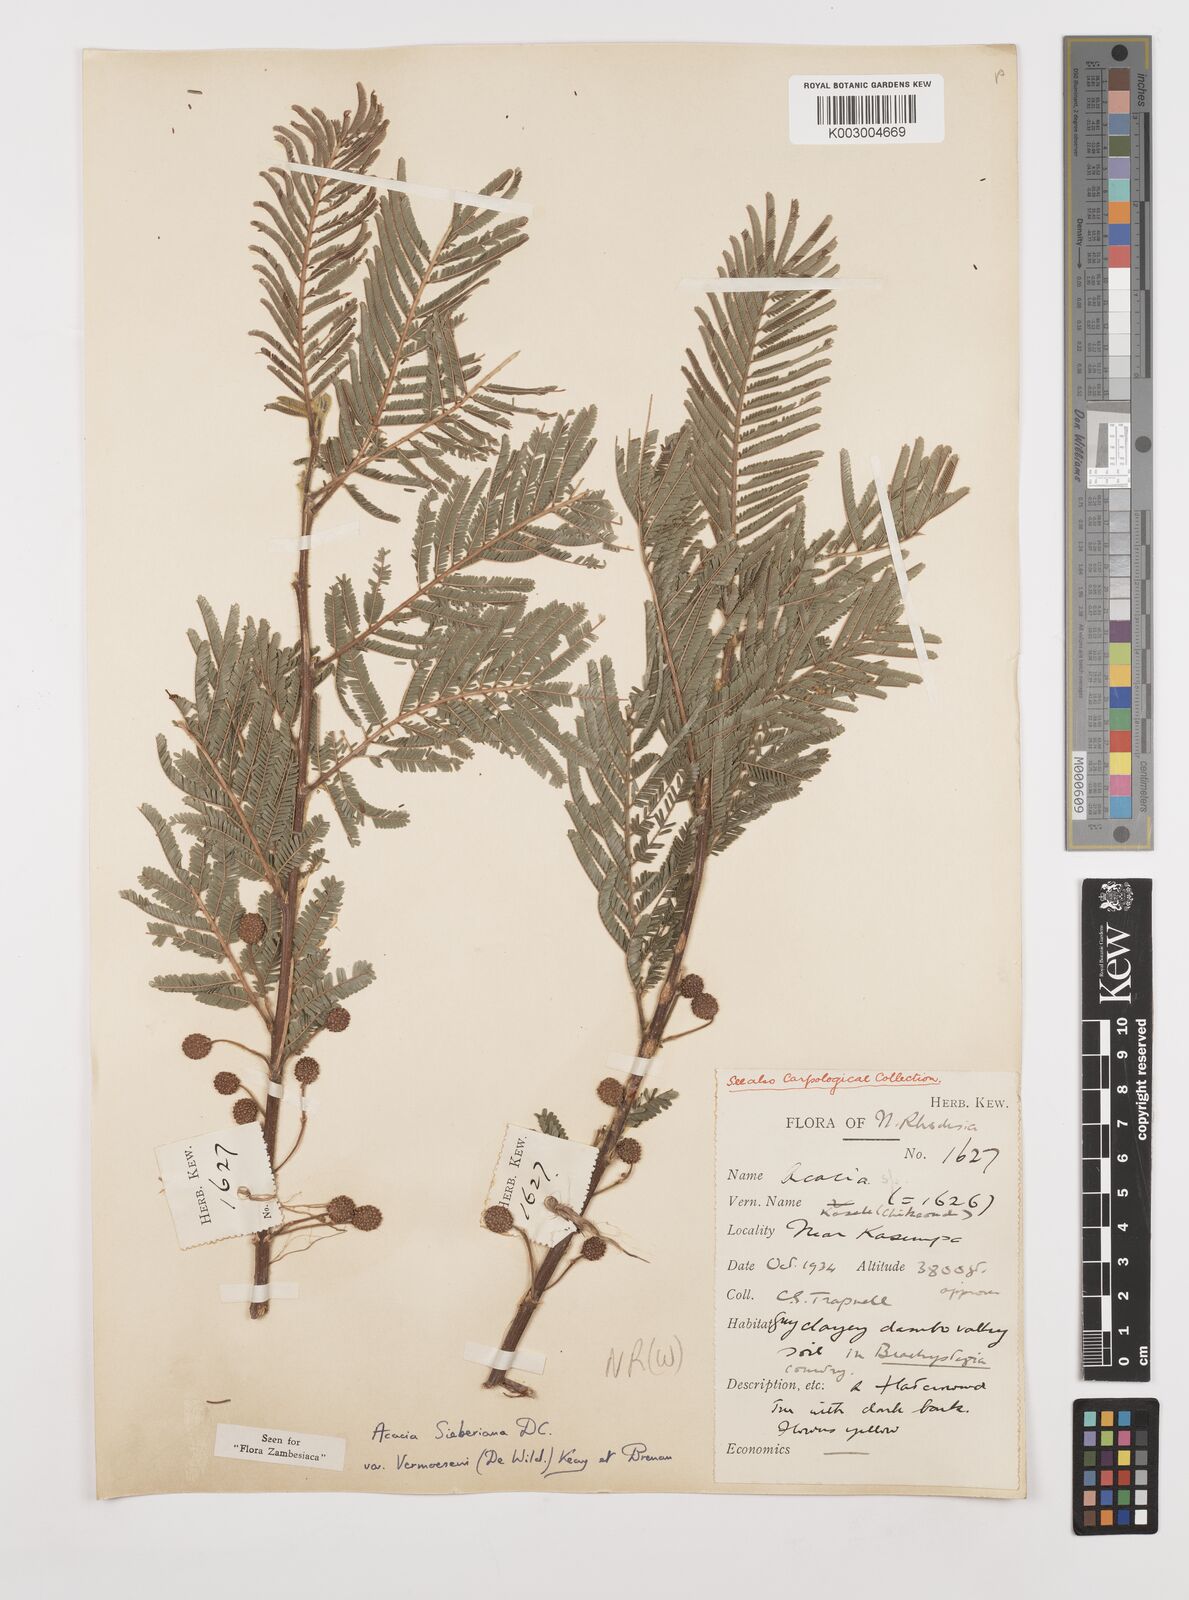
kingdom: Plantae
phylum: Tracheophyta
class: Magnoliopsida
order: Fabales
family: Fabaceae
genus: Vachellia
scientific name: Vachellia sieberiana
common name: Flat-topped thorn
